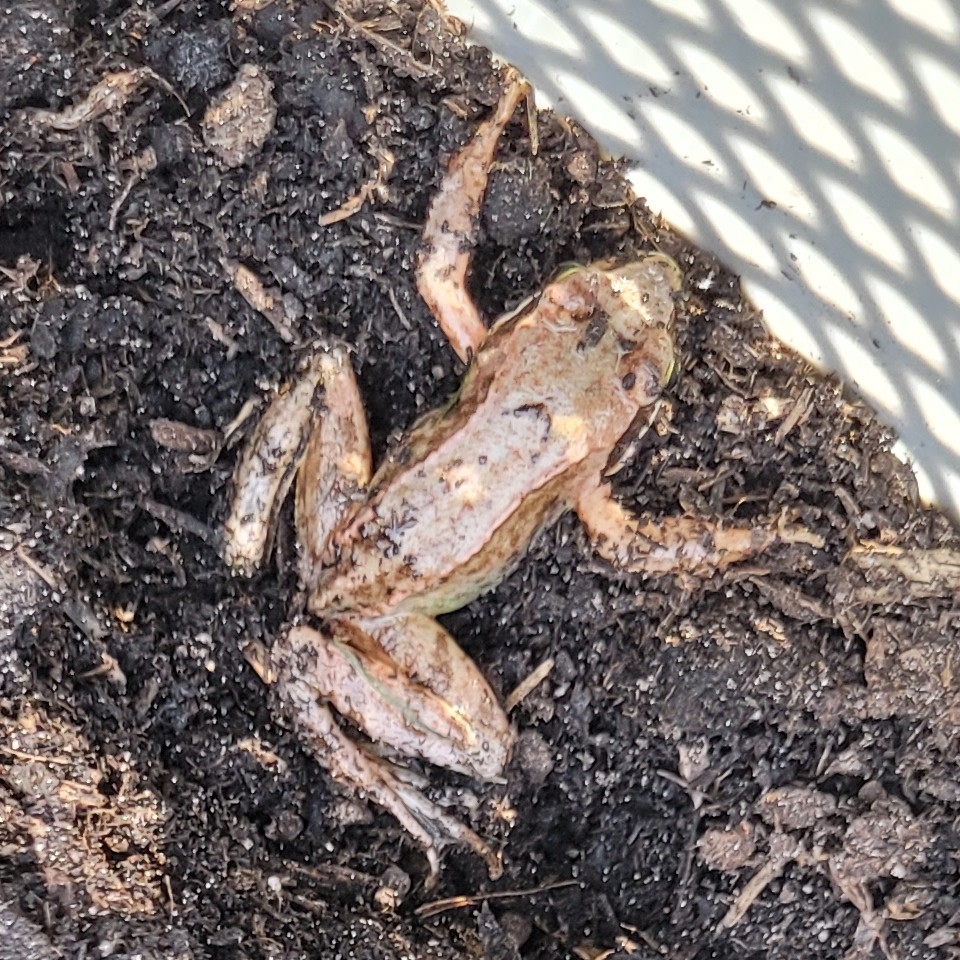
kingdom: Animalia
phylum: Chordata
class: Amphibia
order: Anura
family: Ranidae
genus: Rana
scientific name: Rana temporaria
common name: Butsnudet frø
